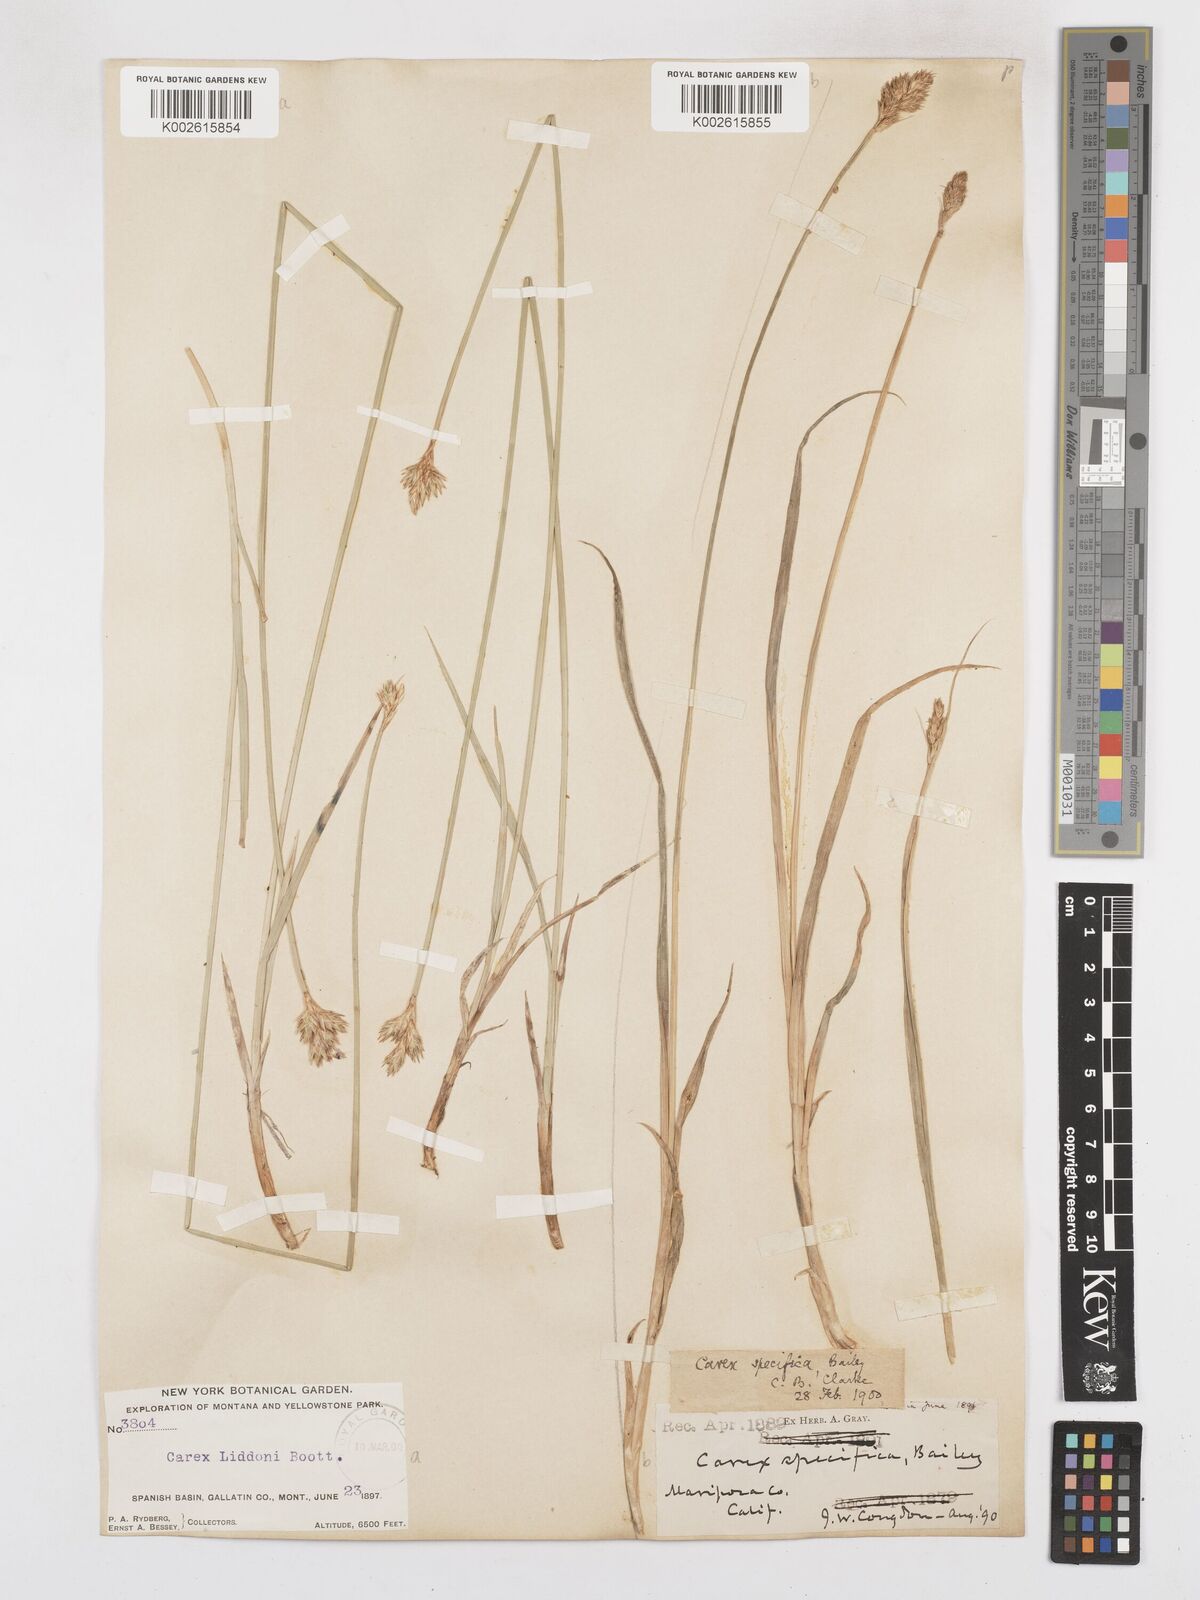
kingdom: Plantae
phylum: Tracheophyta
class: Liliopsida
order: Poales
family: Cyperaceae
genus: Carex
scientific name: Carex specifica
